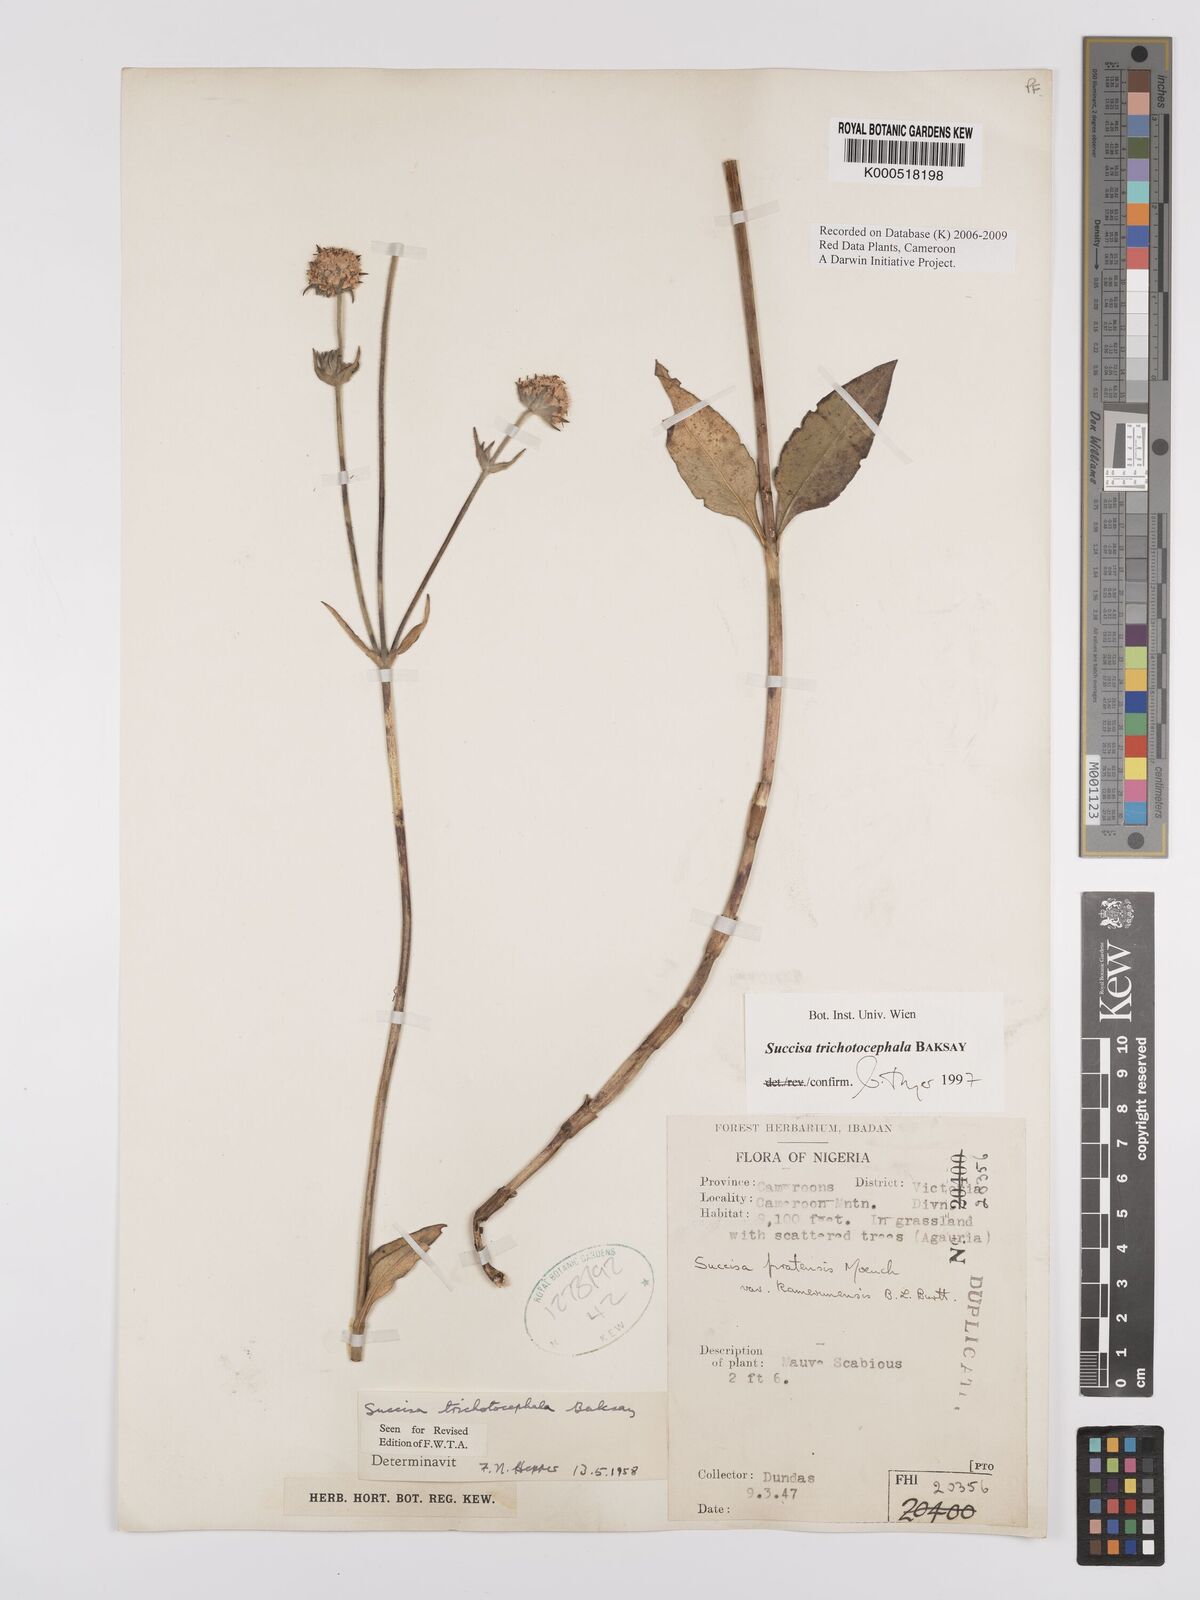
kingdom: Plantae
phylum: Tracheophyta
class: Magnoliopsida
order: Dipsacales
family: Caprifoliaceae
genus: Succisa
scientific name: Succisa trichotocephala
